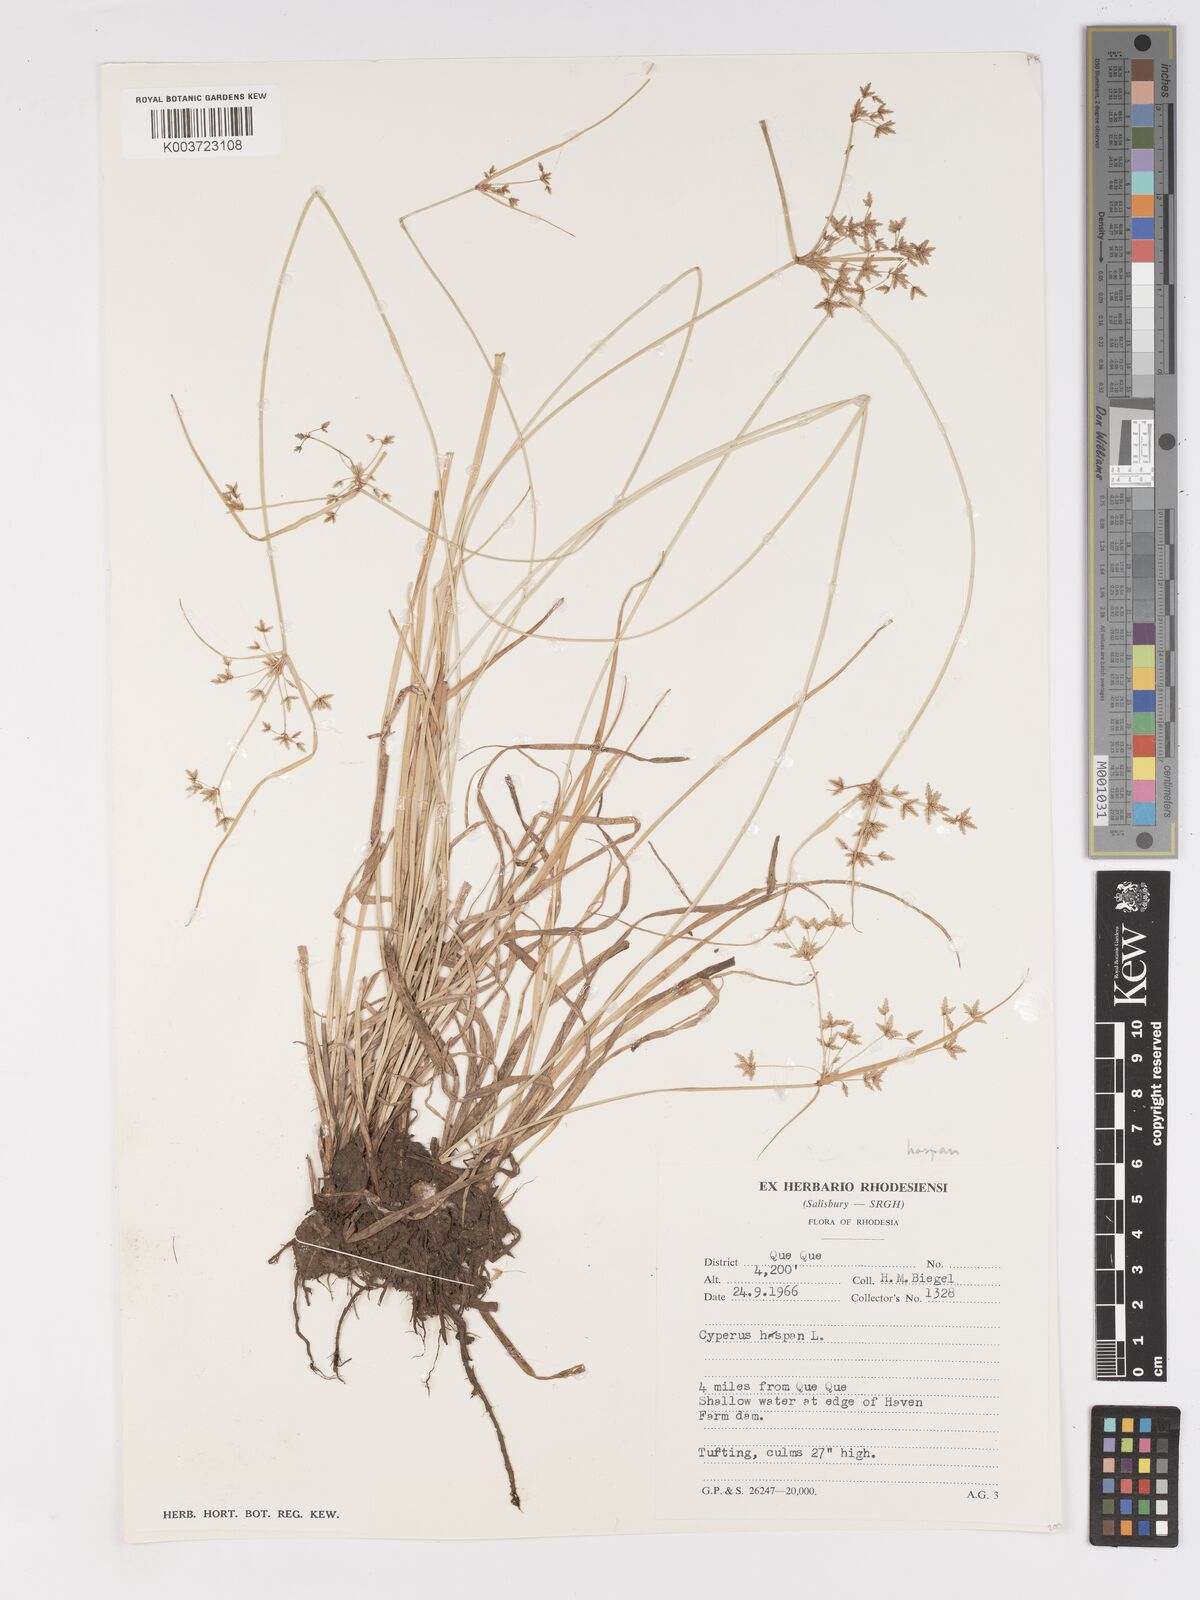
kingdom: Plantae
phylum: Tracheophyta
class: Liliopsida
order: Poales
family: Cyperaceae
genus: Cyperus
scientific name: Cyperus haspan
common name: Haspan flatsedge
